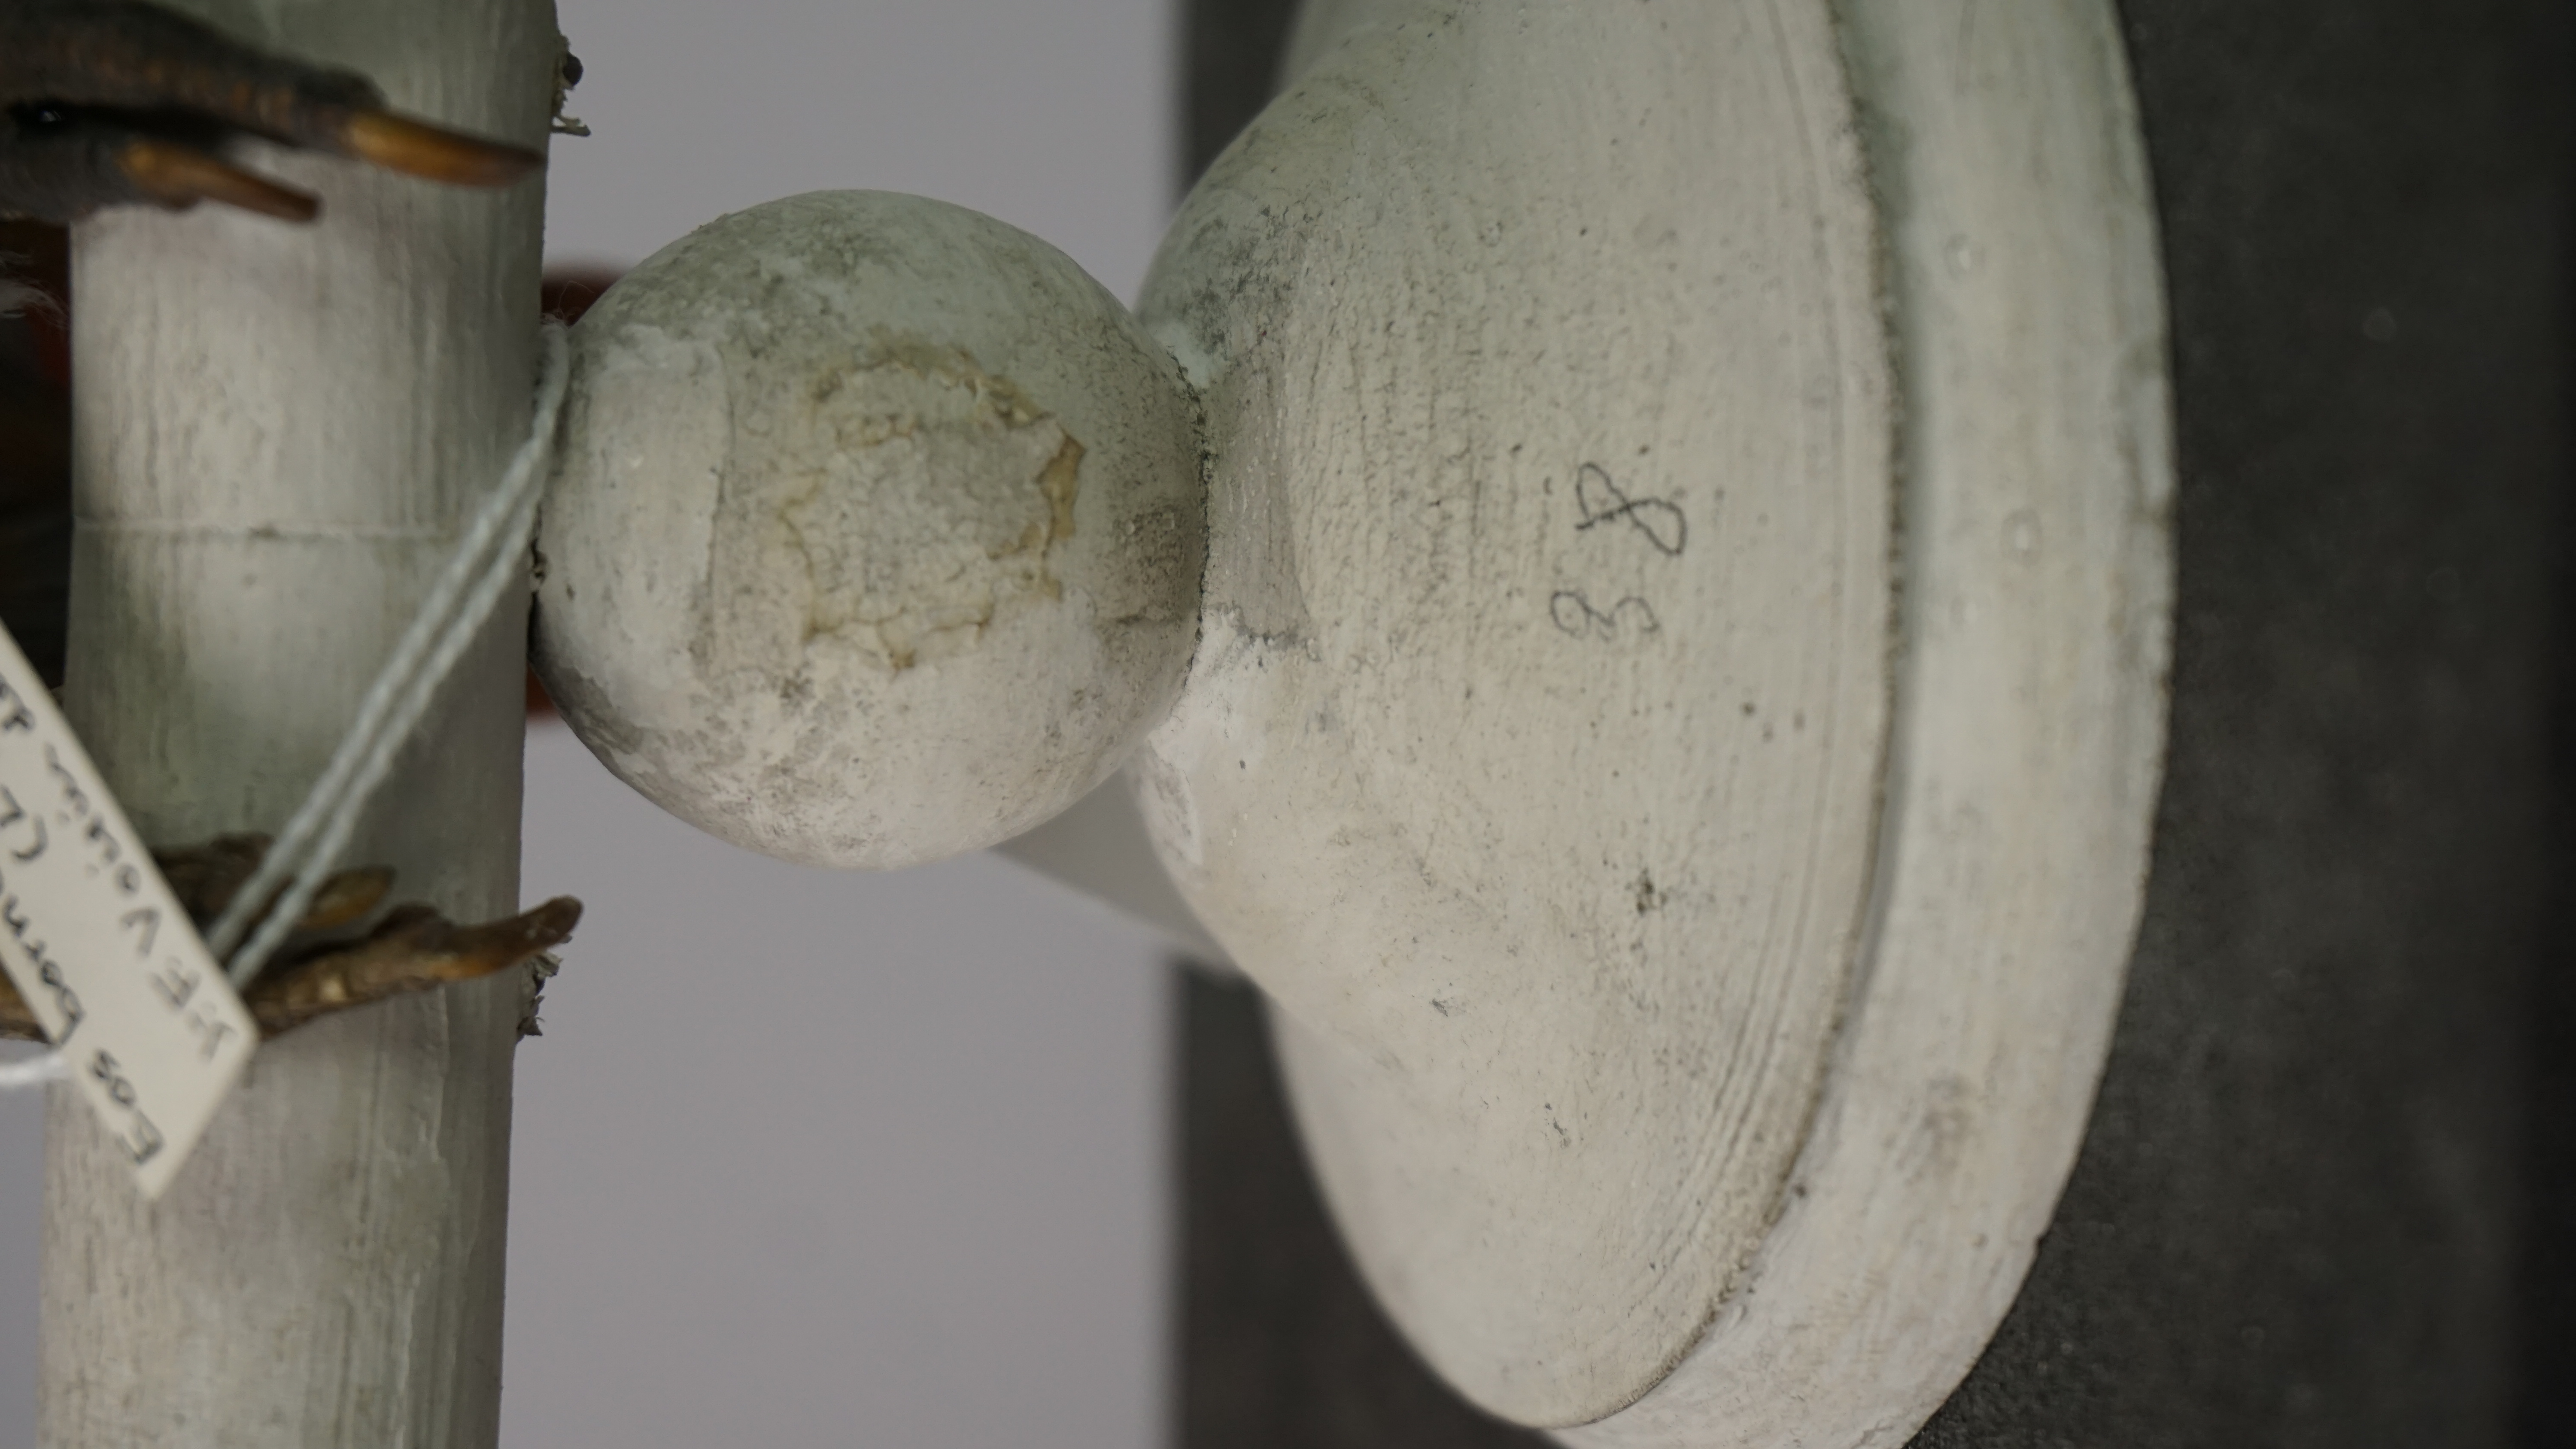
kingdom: Animalia
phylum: Chordata
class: Aves
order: Psittaciformes
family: Psittacidae
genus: Eos
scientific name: Eos bornea
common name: Red lory
